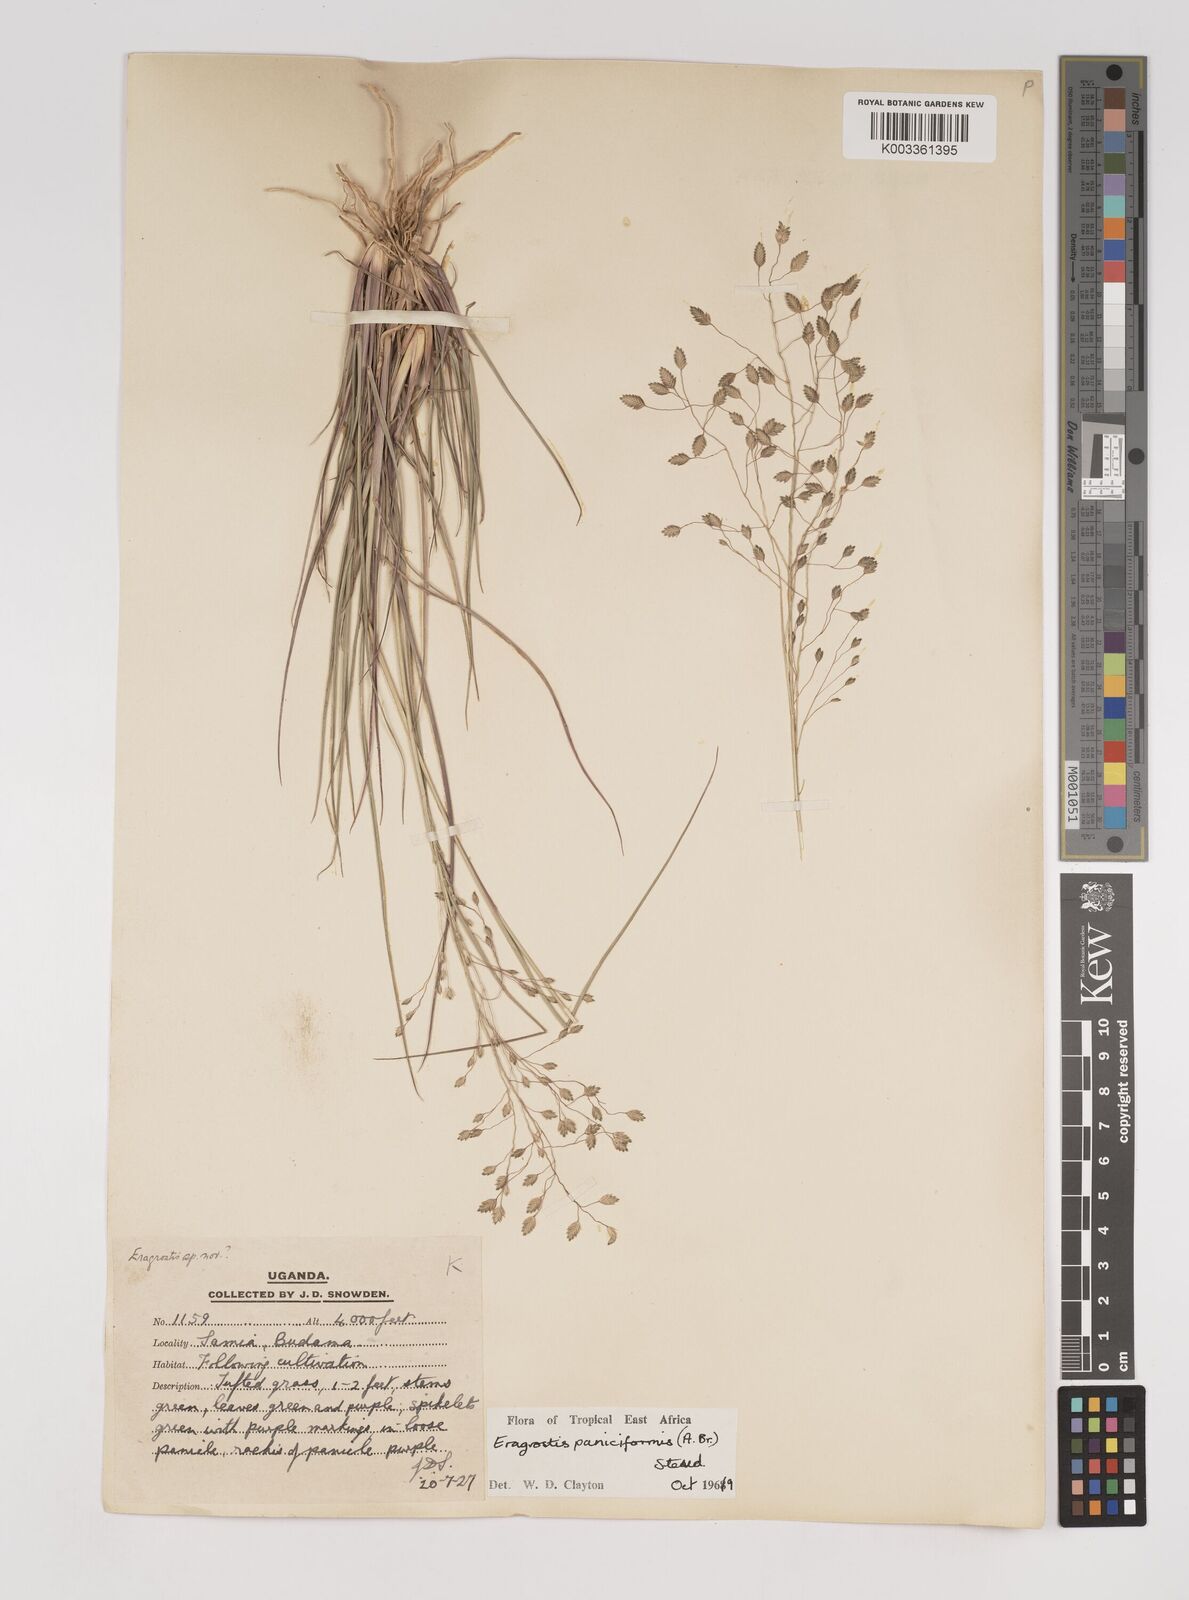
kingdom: Plantae
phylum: Tracheophyta
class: Liliopsida
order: Poales
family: Poaceae
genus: Eragrostis
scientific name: Eragrostis paniciformis
